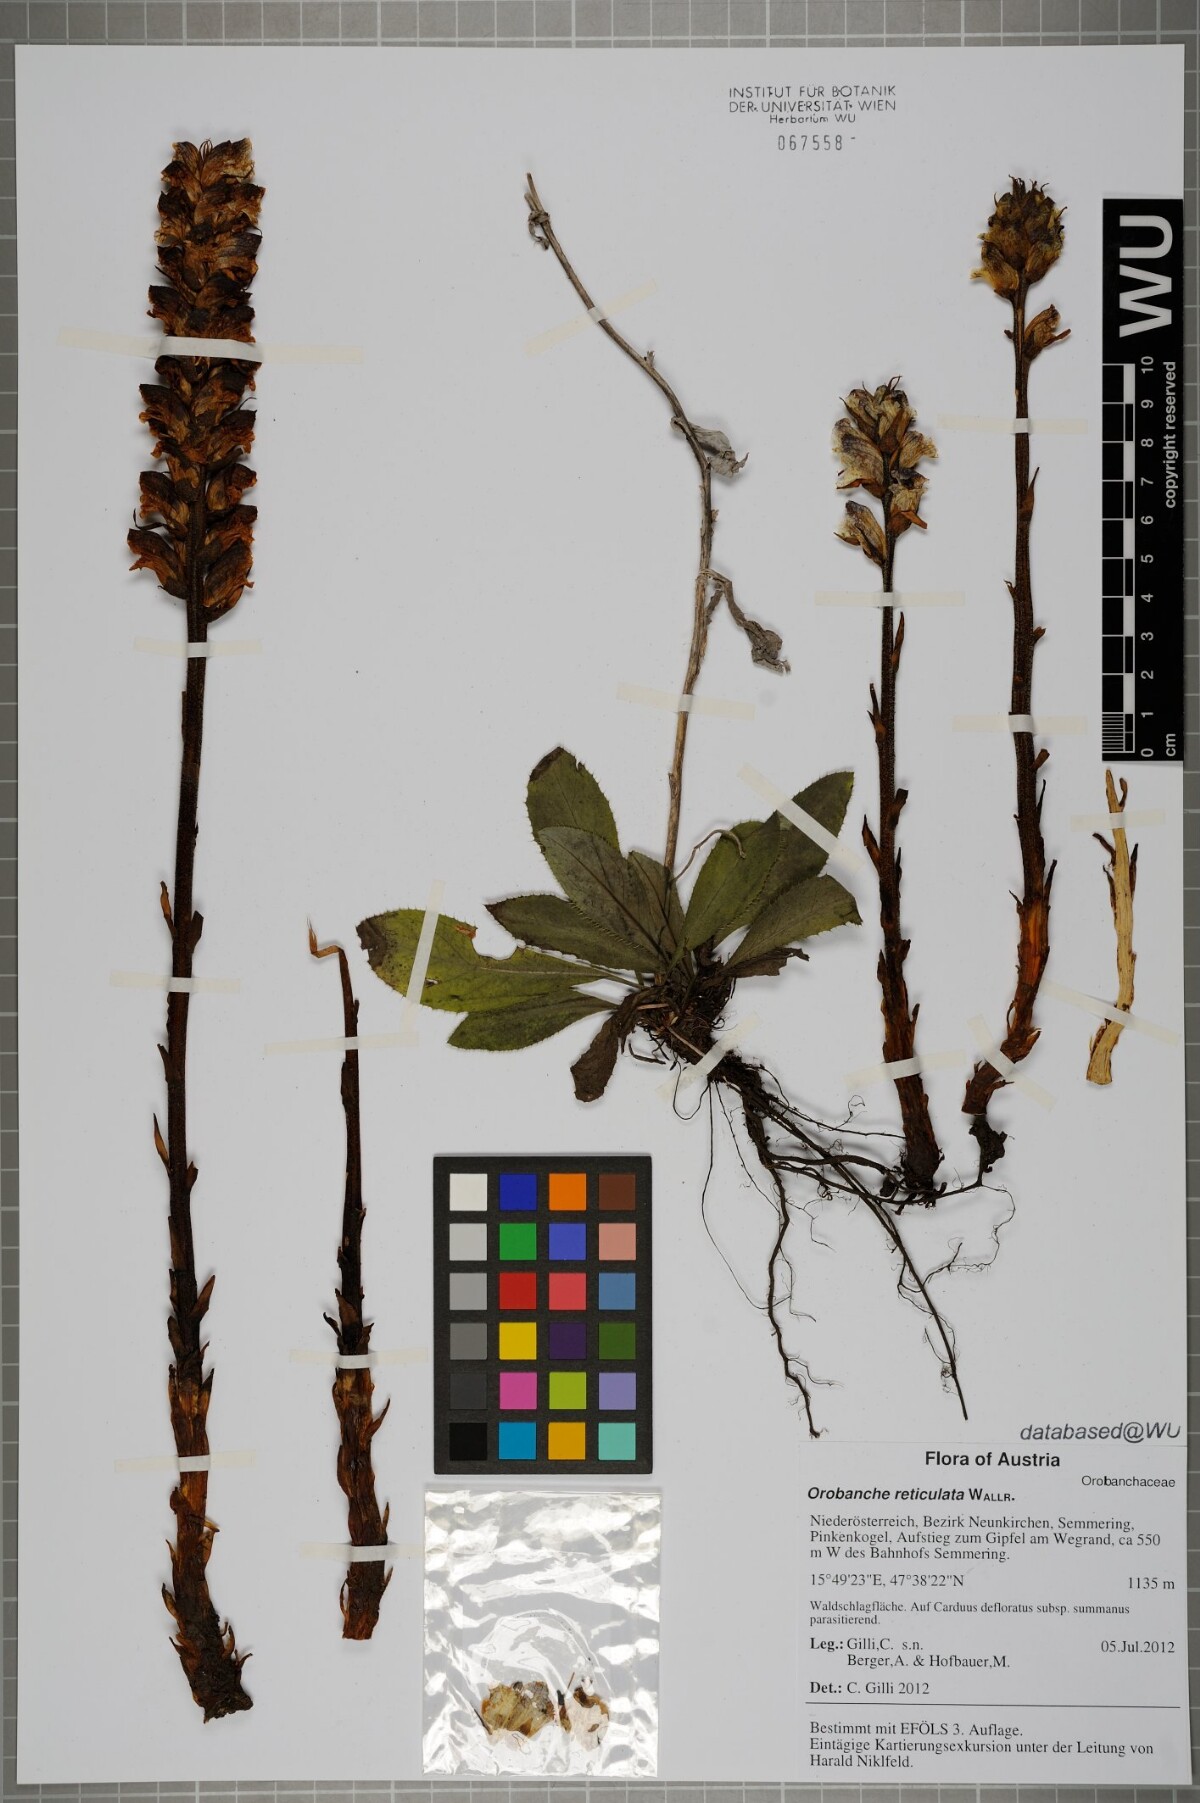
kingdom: Plantae
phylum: Tracheophyta
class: Magnoliopsida
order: Lamiales
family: Orobanchaceae
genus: Orobanche
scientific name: Orobanche reticulata
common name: Thistle broomrape
